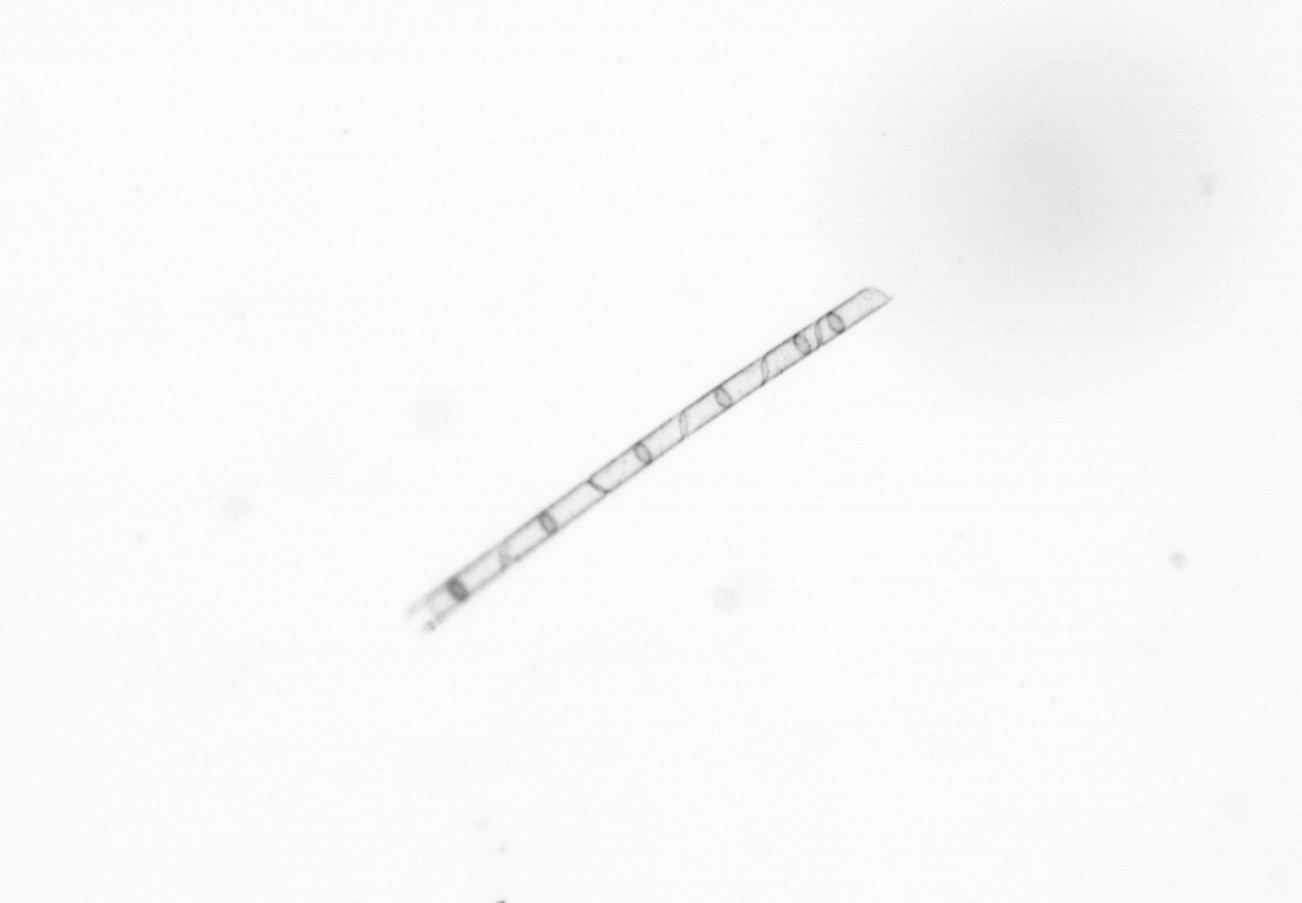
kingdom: Chromista
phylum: Ochrophyta
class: Bacillariophyceae
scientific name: Bacillariophyceae
